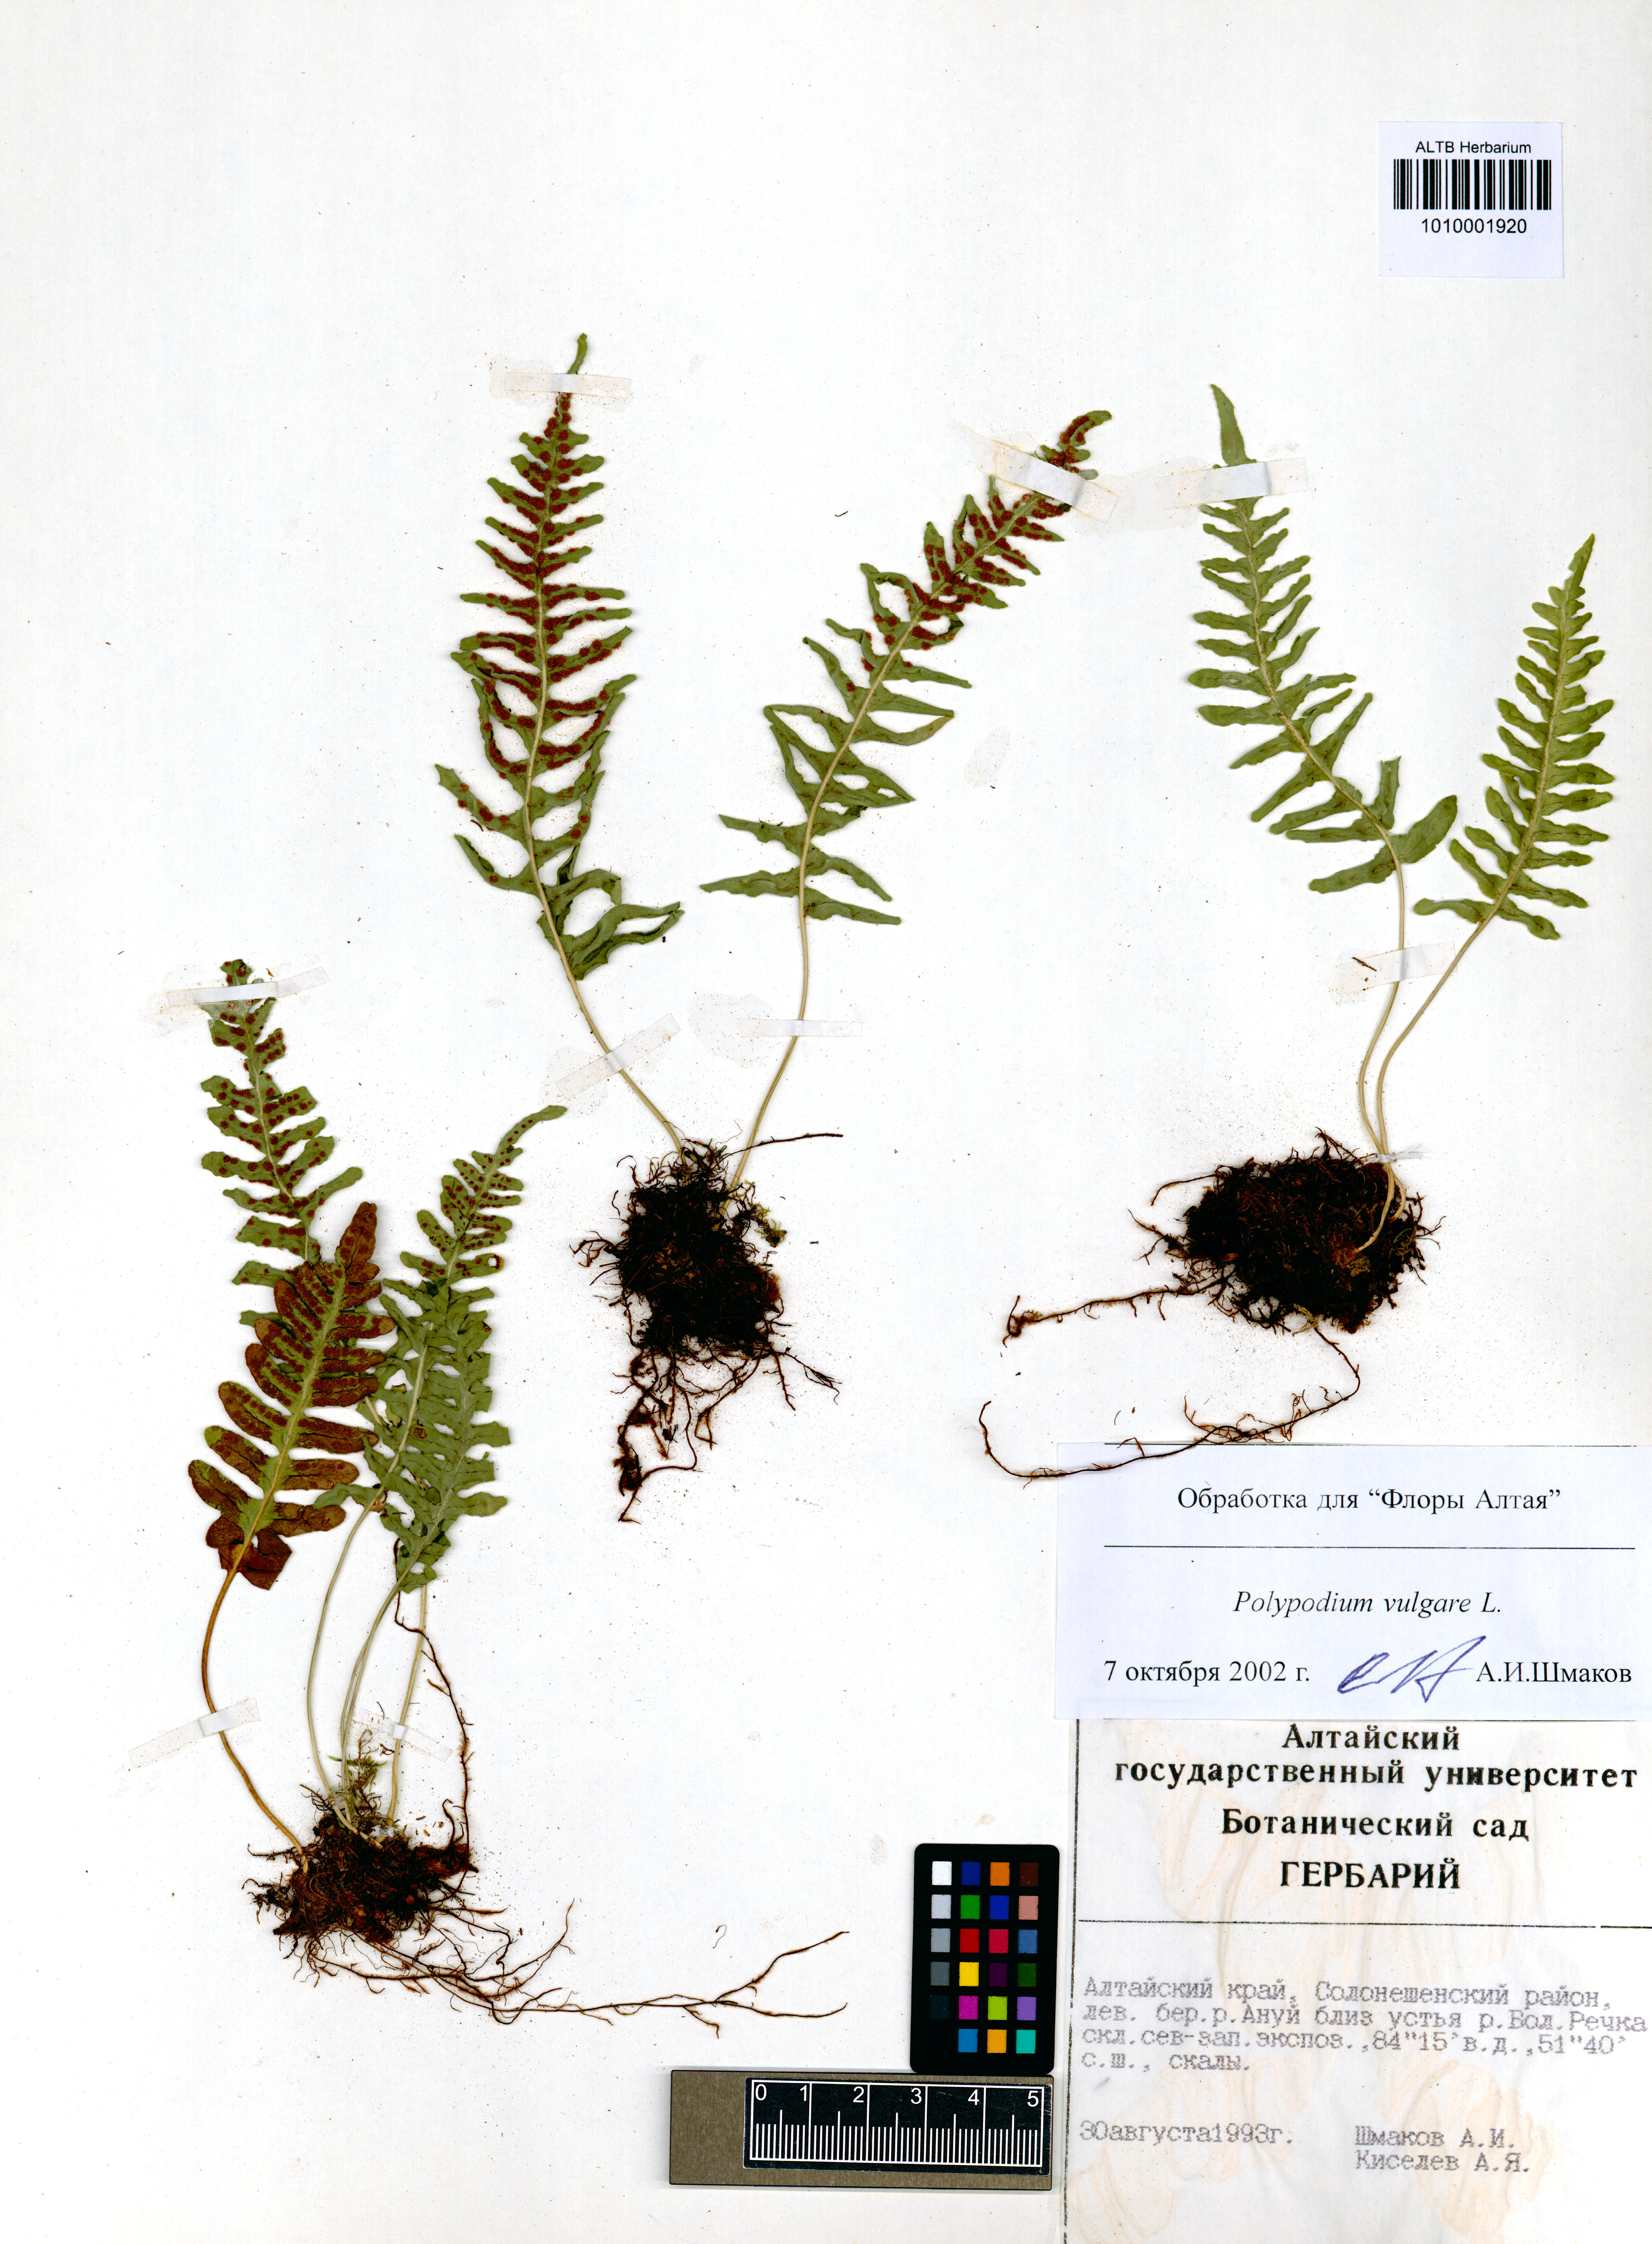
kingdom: Plantae
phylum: Tracheophyta
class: Polypodiopsida
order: Polypodiales
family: Polypodiaceae
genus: Polypodium
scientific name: Polypodium vulgare
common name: Common polypody
